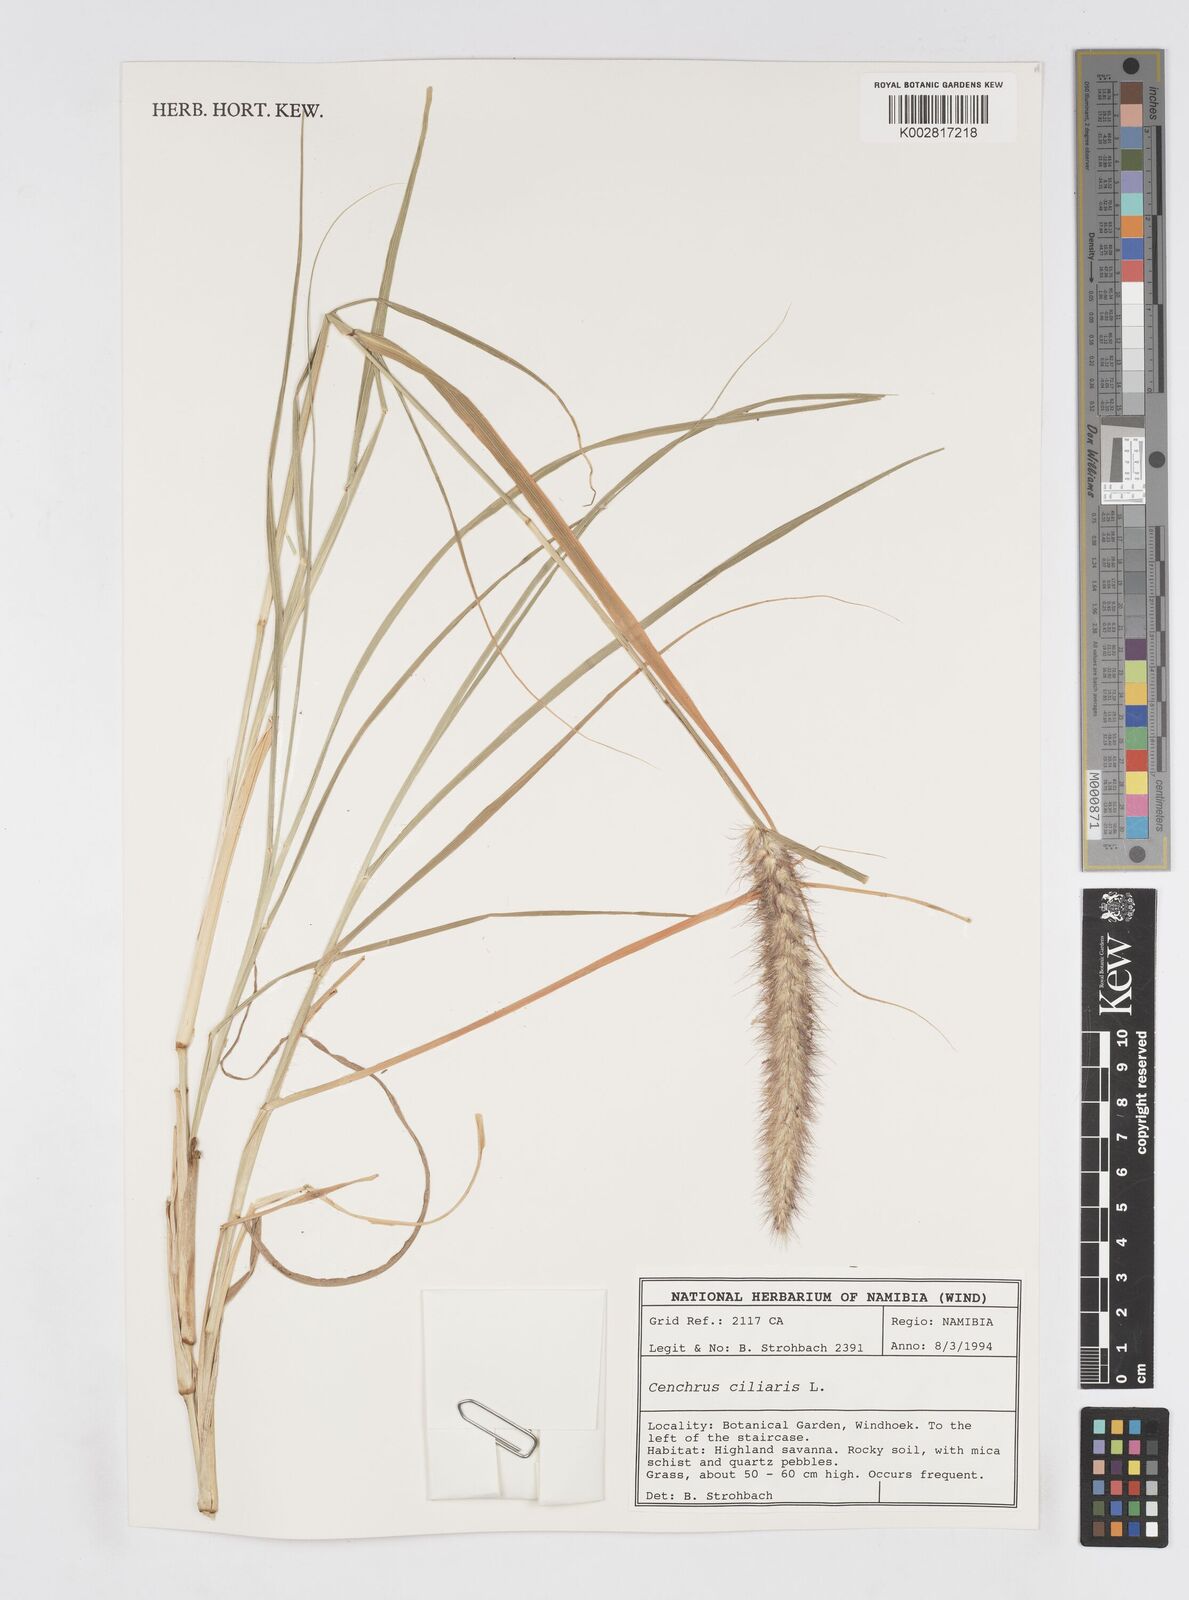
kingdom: Plantae
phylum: Tracheophyta
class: Liliopsida
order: Poales
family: Poaceae
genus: Cenchrus
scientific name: Cenchrus ciliaris
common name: Buffelgrass
